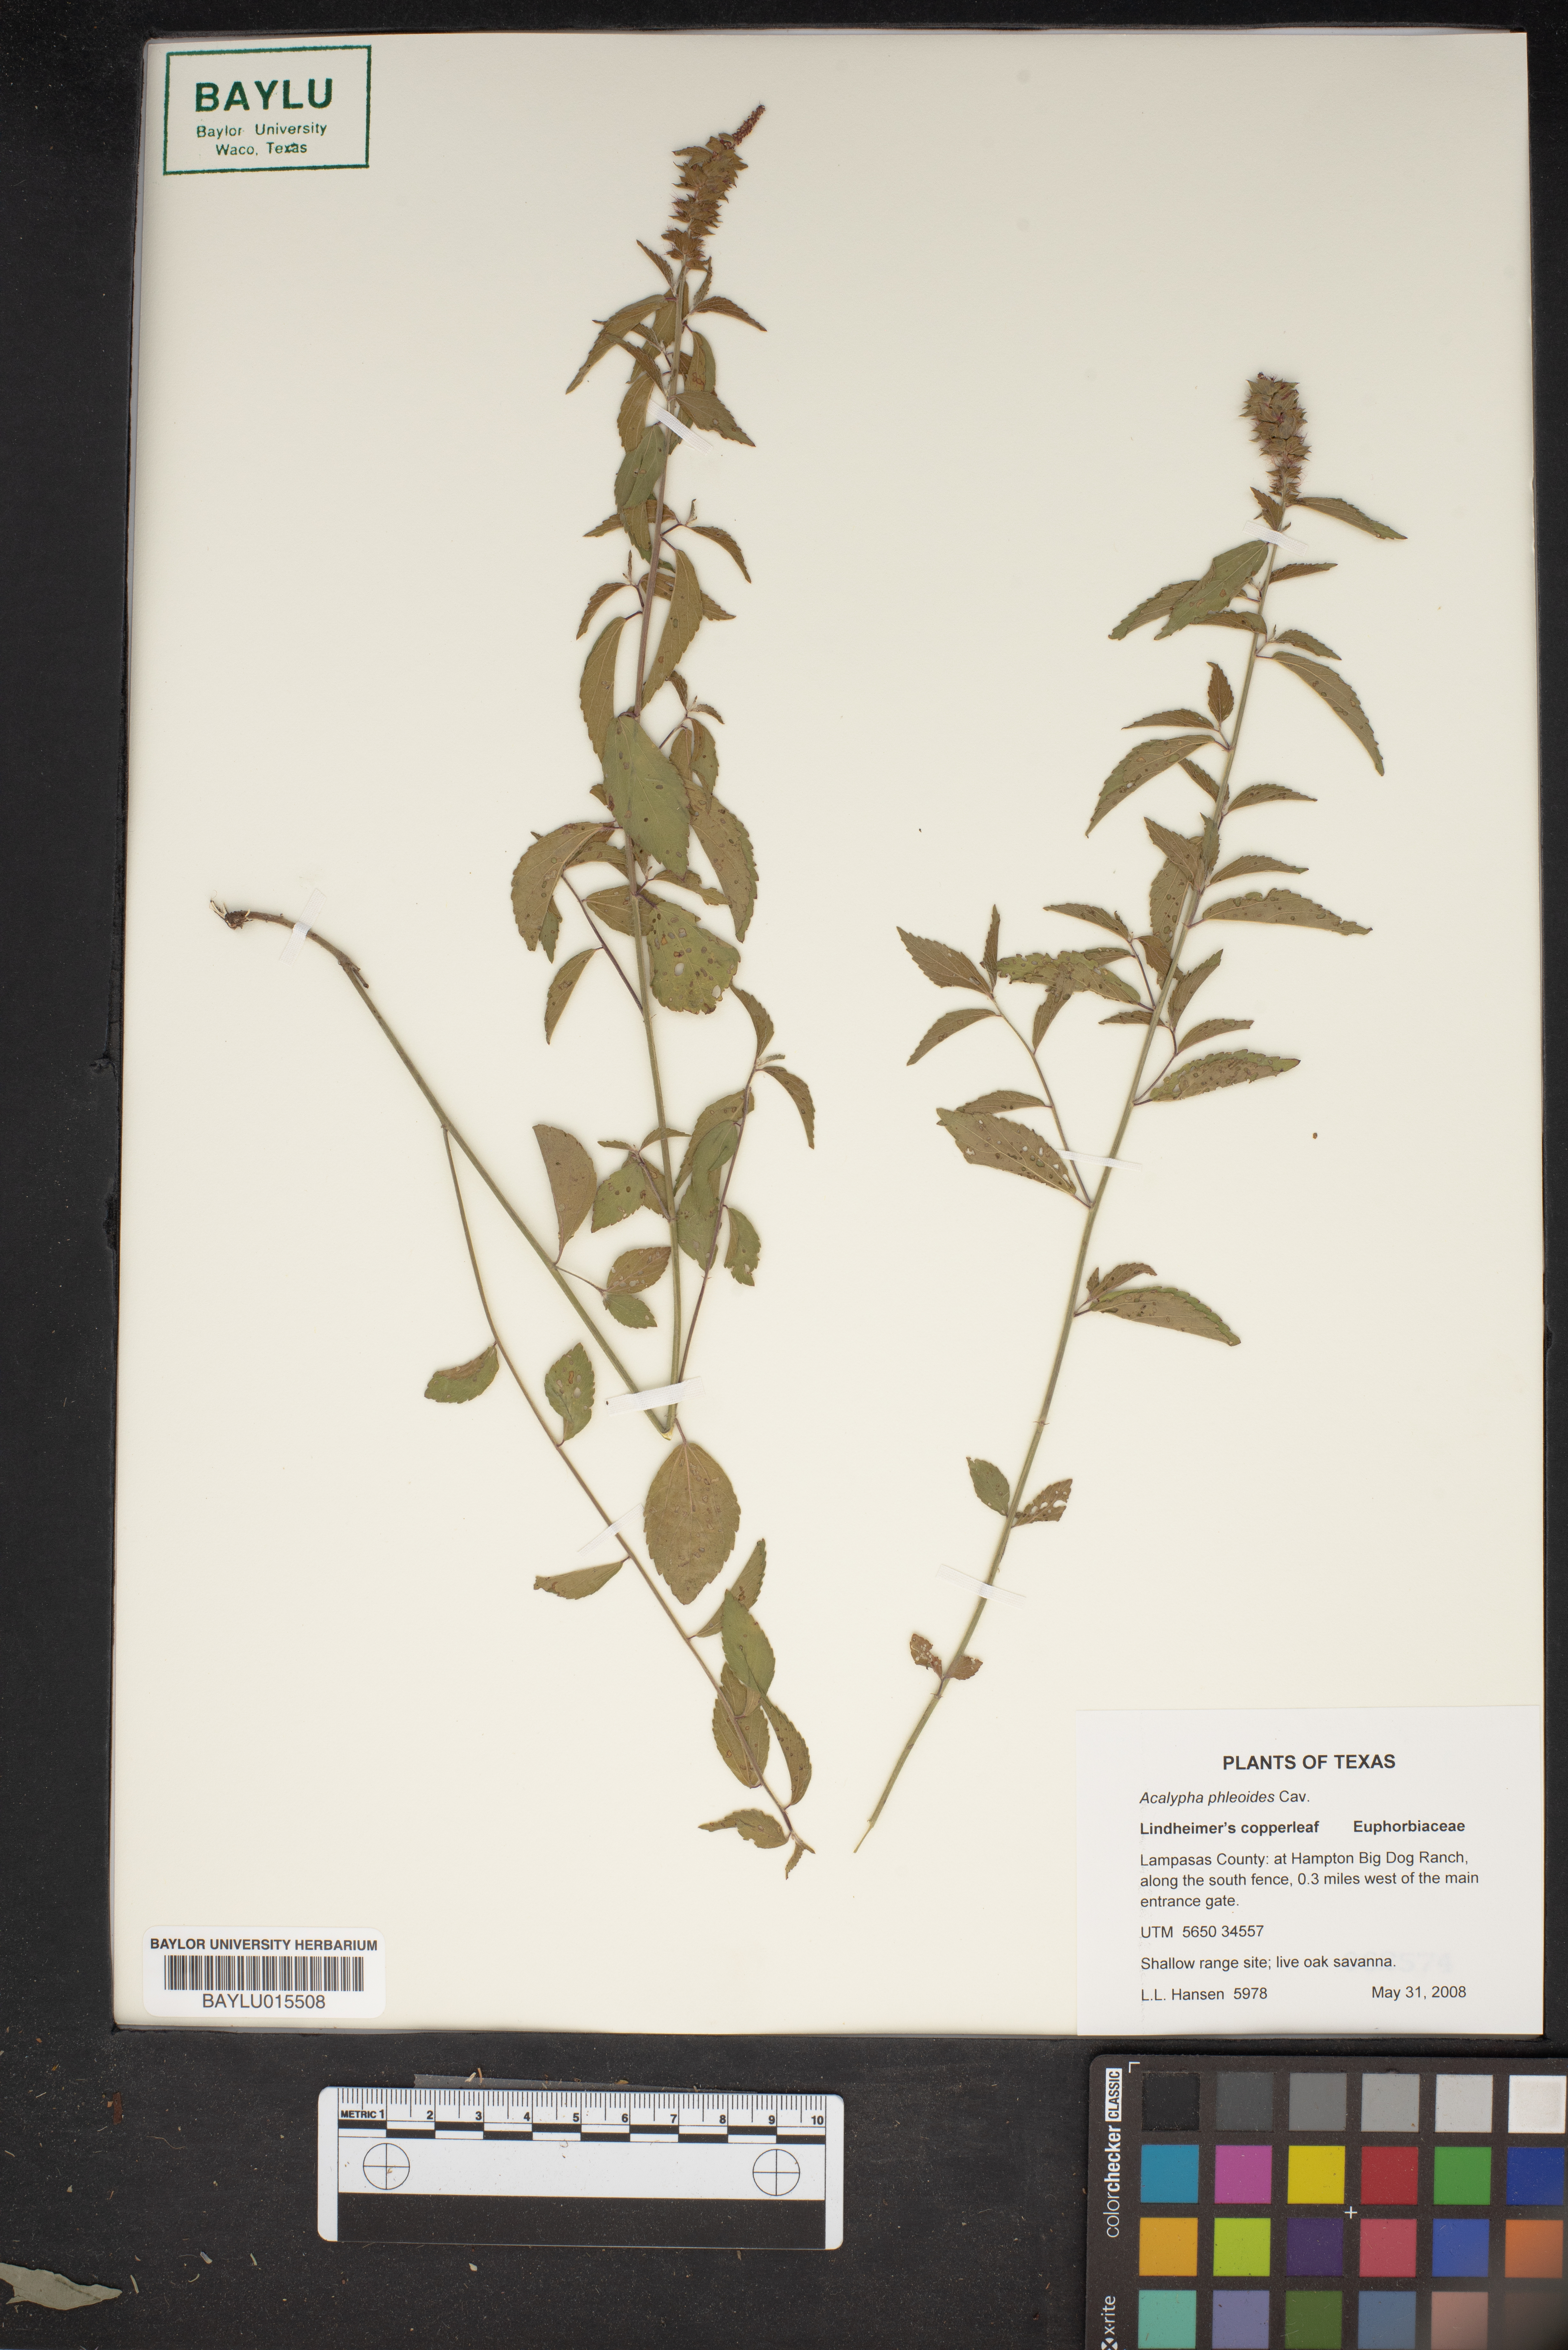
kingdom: Plantae
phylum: Tracheophyta
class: Magnoliopsida
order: Malpighiales
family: Euphorbiaceae
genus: Acalypha
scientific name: Acalypha phleoides
